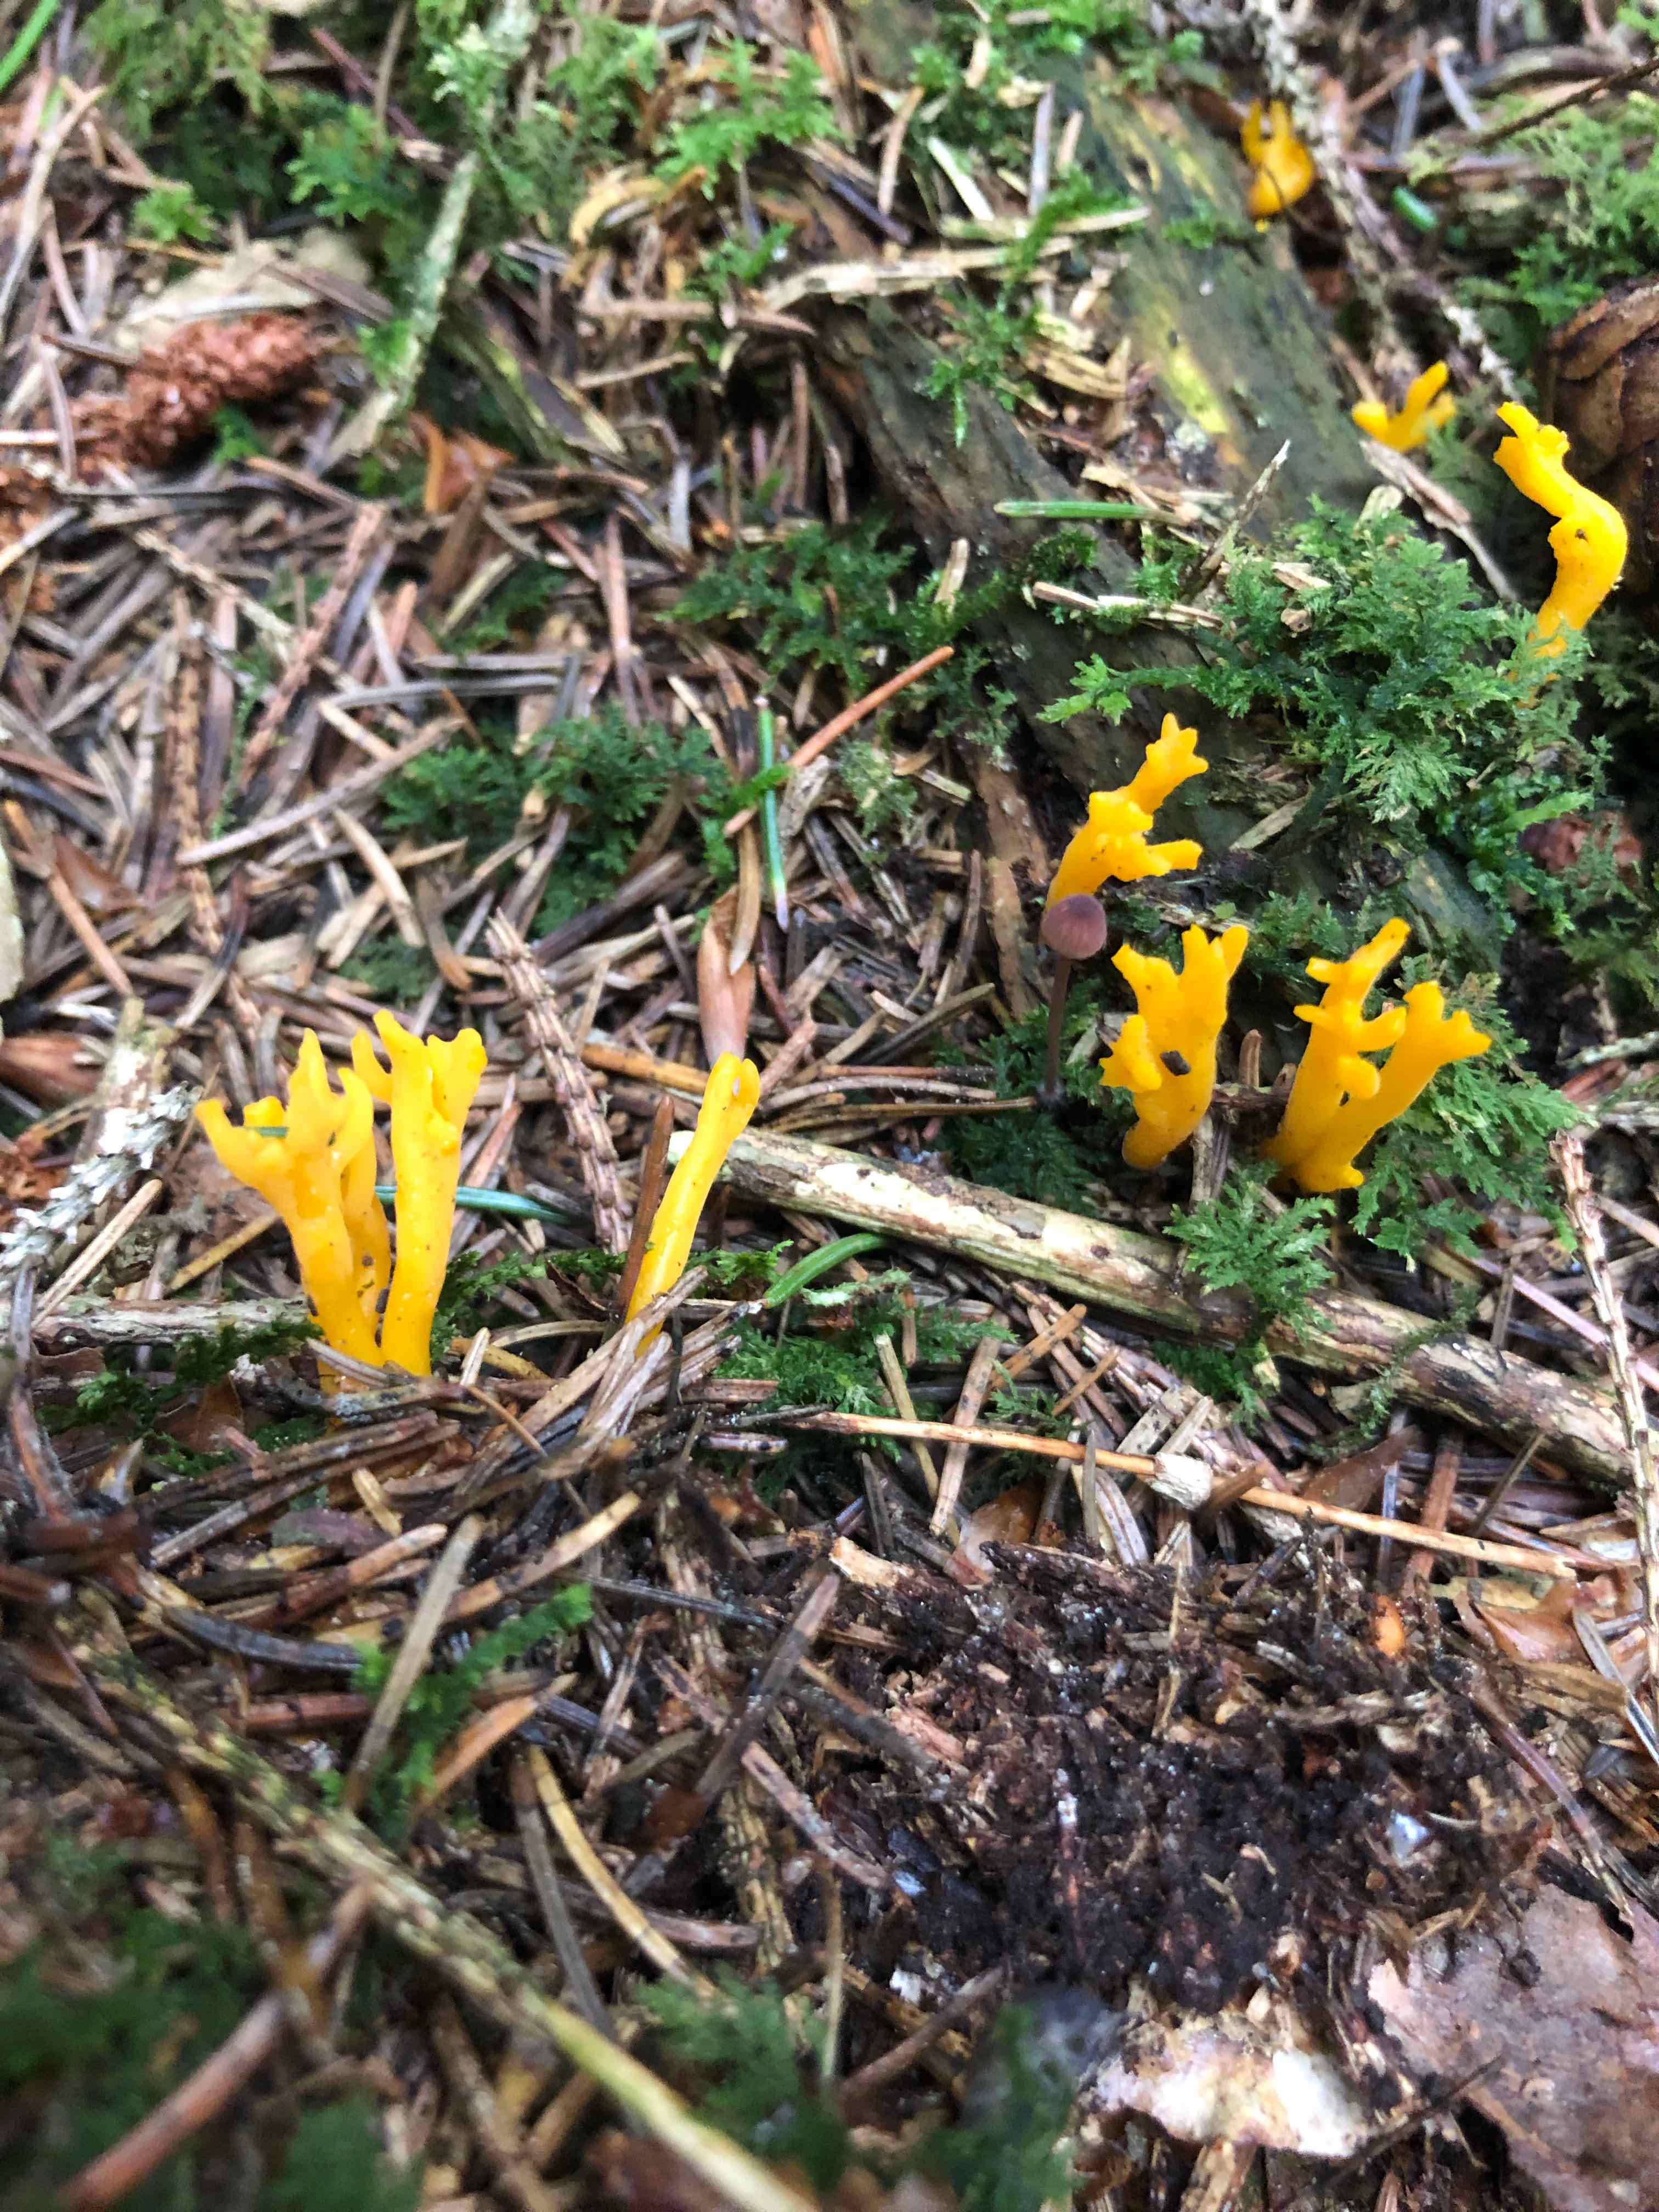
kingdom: Fungi
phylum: Basidiomycota
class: Dacrymycetes
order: Dacrymycetales
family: Dacrymycetaceae
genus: Calocera
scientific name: Calocera viscosa
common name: almindelig guldgaffel
